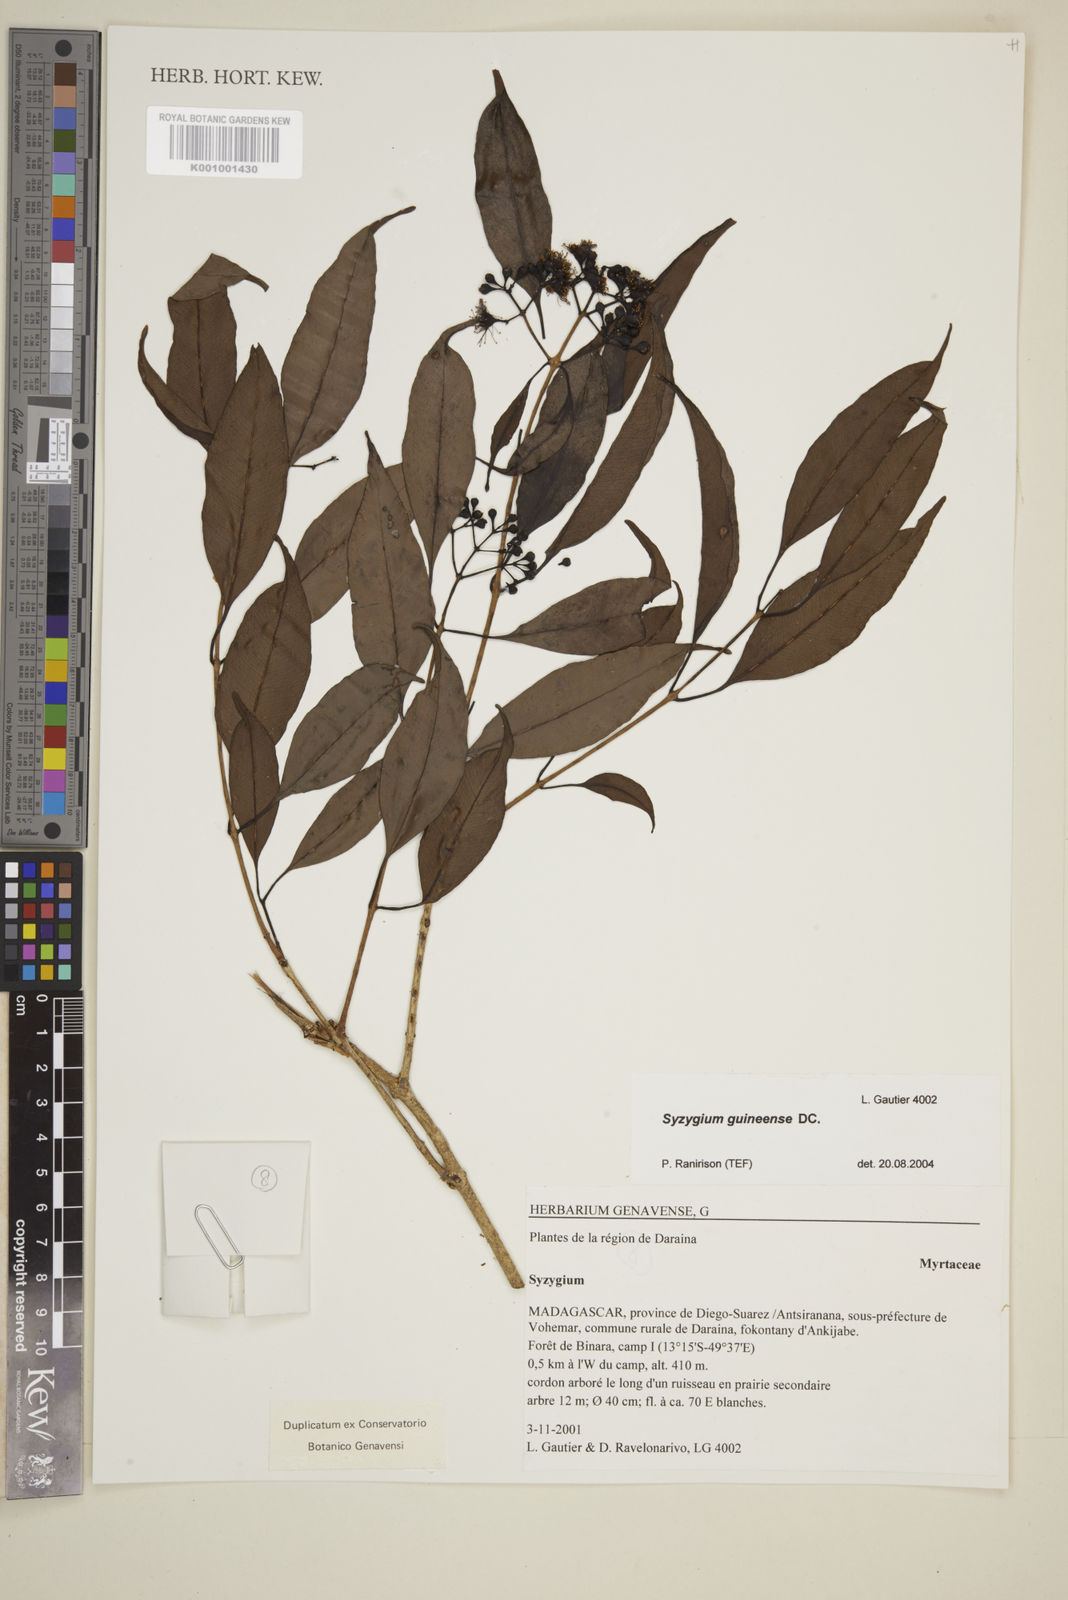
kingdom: Plantae
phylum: Tracheophyta
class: Magnoliopsida
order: Myrtales
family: Myrtaceae
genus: Eugenia
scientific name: Eugenia comorensis
